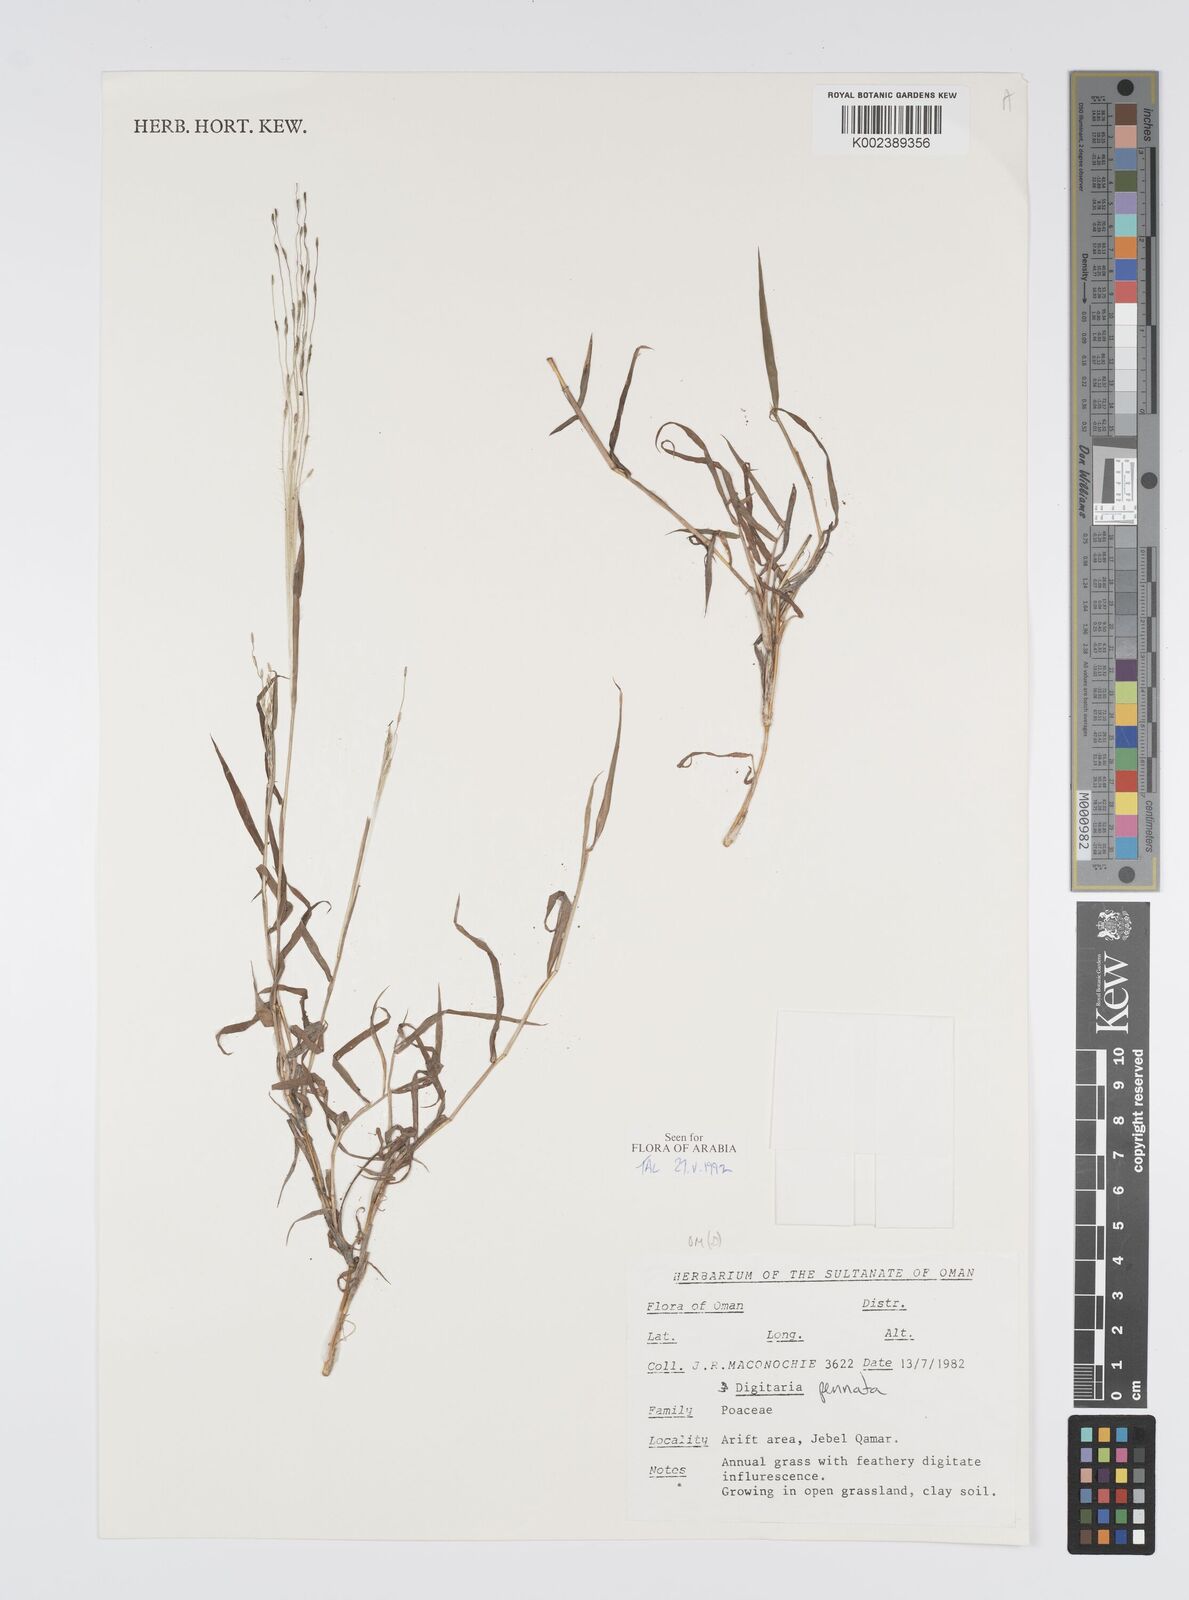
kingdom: Plantae
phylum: Tracheophyta
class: Liliopsida
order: Poales
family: Poaceae
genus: Digitaria
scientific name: Digitaria pennata
